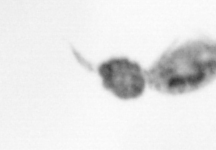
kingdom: Animalia
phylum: Arthropoda
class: Copepoda
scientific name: Copepoda
